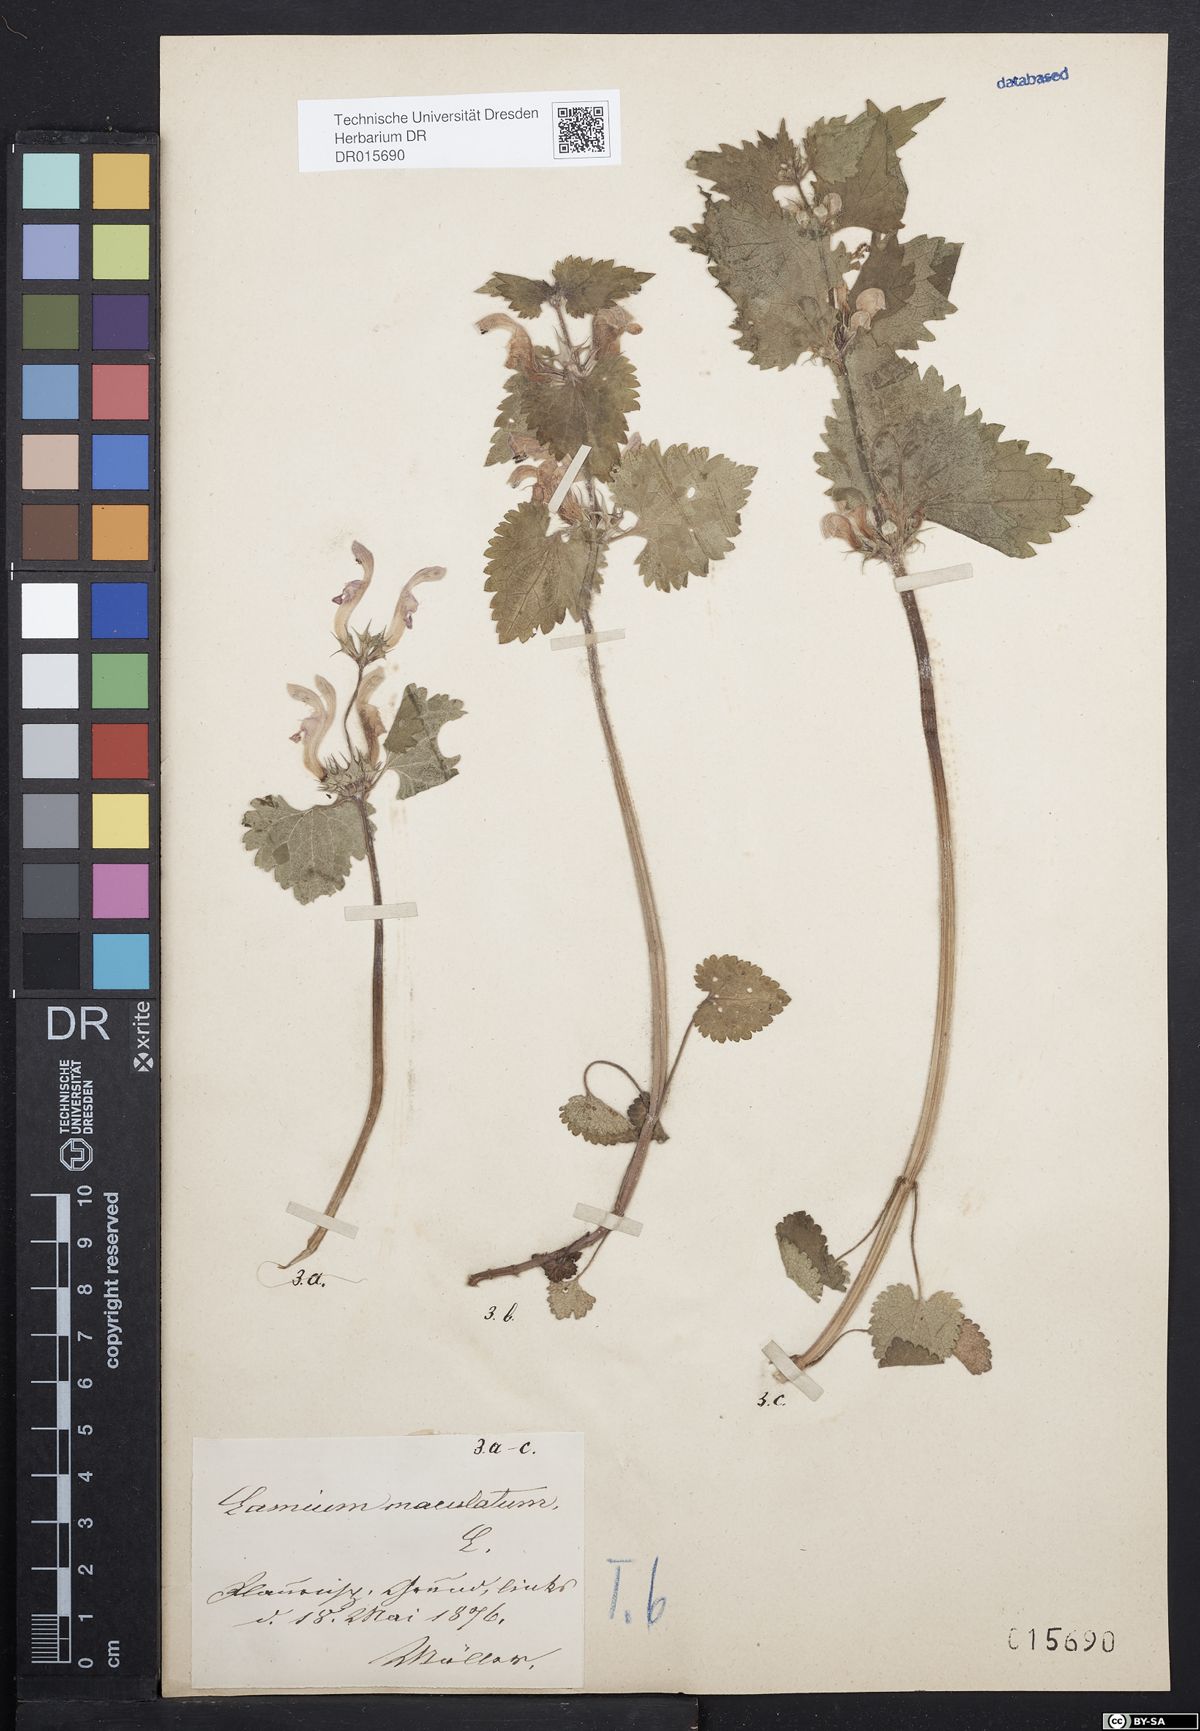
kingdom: Plantae
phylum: Tracheophyta
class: Magnoliopsida
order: Lamiales
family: Lamiaceae
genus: Lamium
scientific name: Lamium maculatum
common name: Spotted dead-nettle
